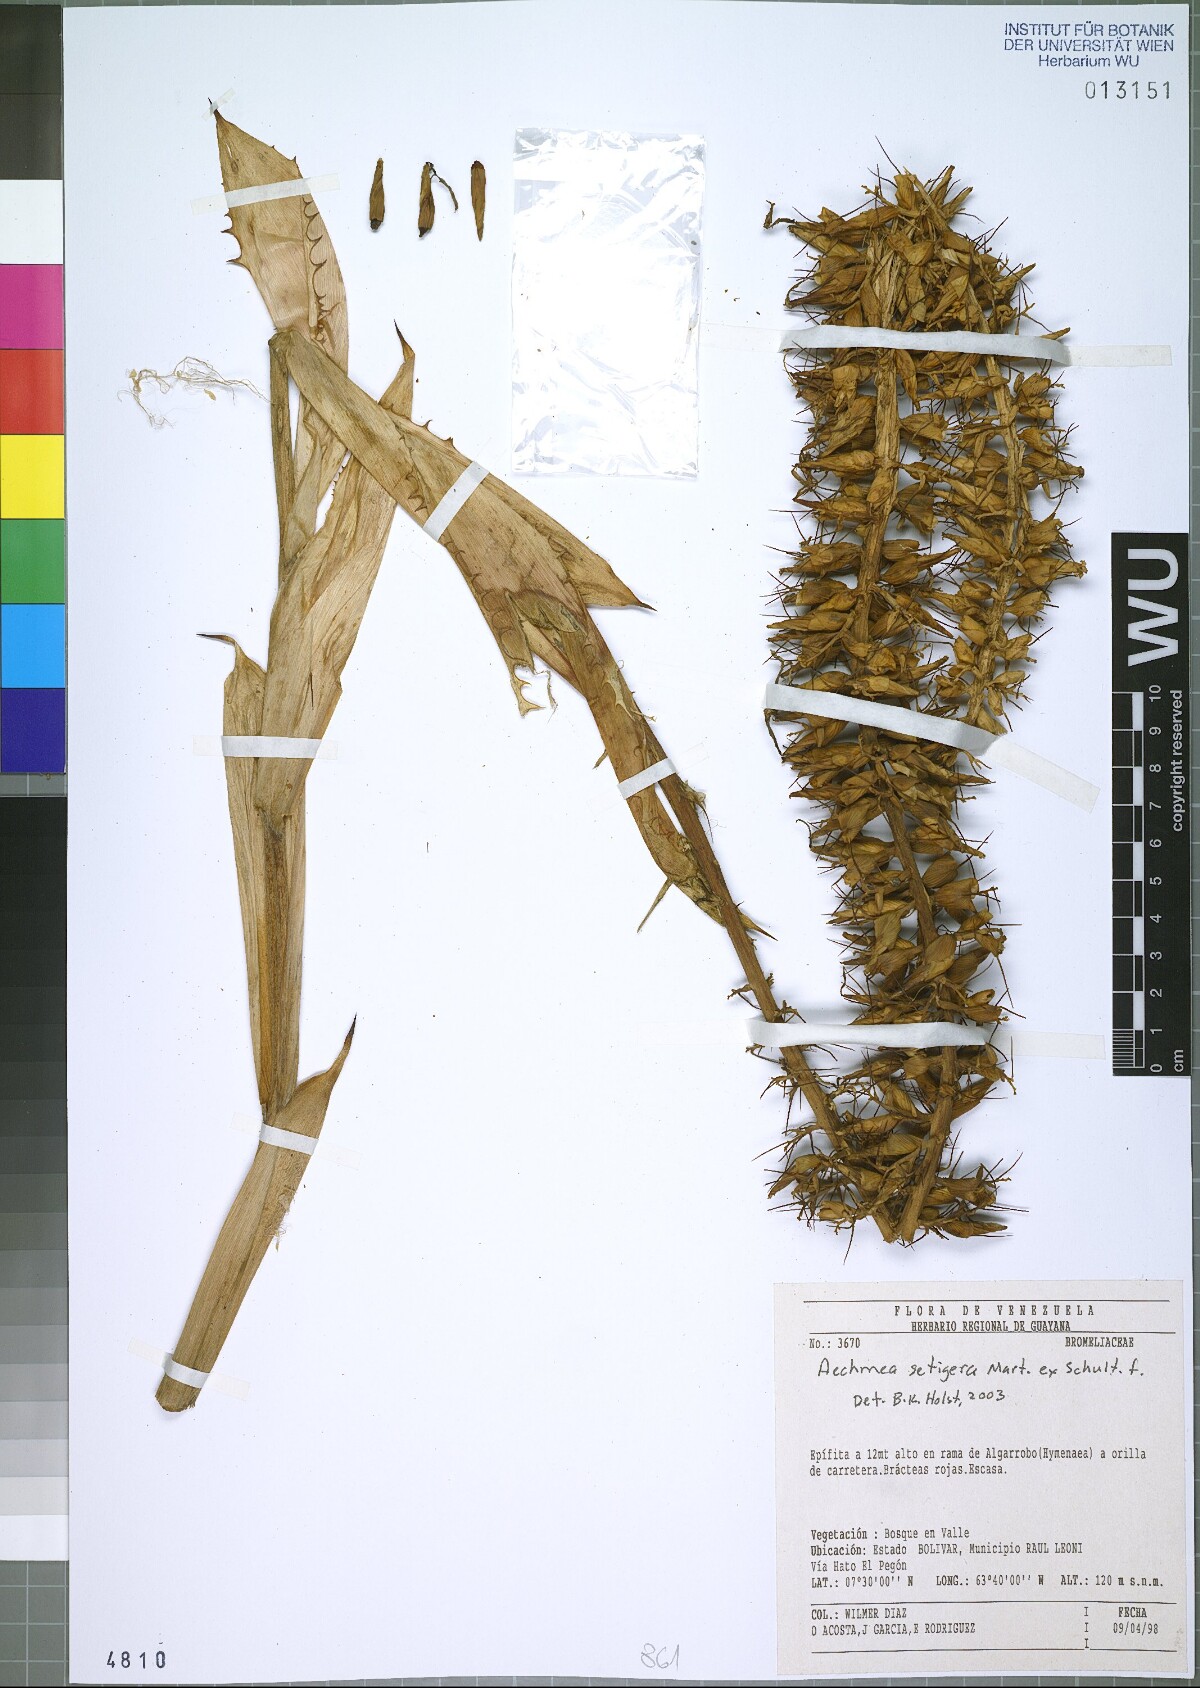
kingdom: Plantae
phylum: Tracheophyta
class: Liliopsida
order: Poales
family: Bromeliaceae
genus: Aechmea
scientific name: Aechmea setigera
